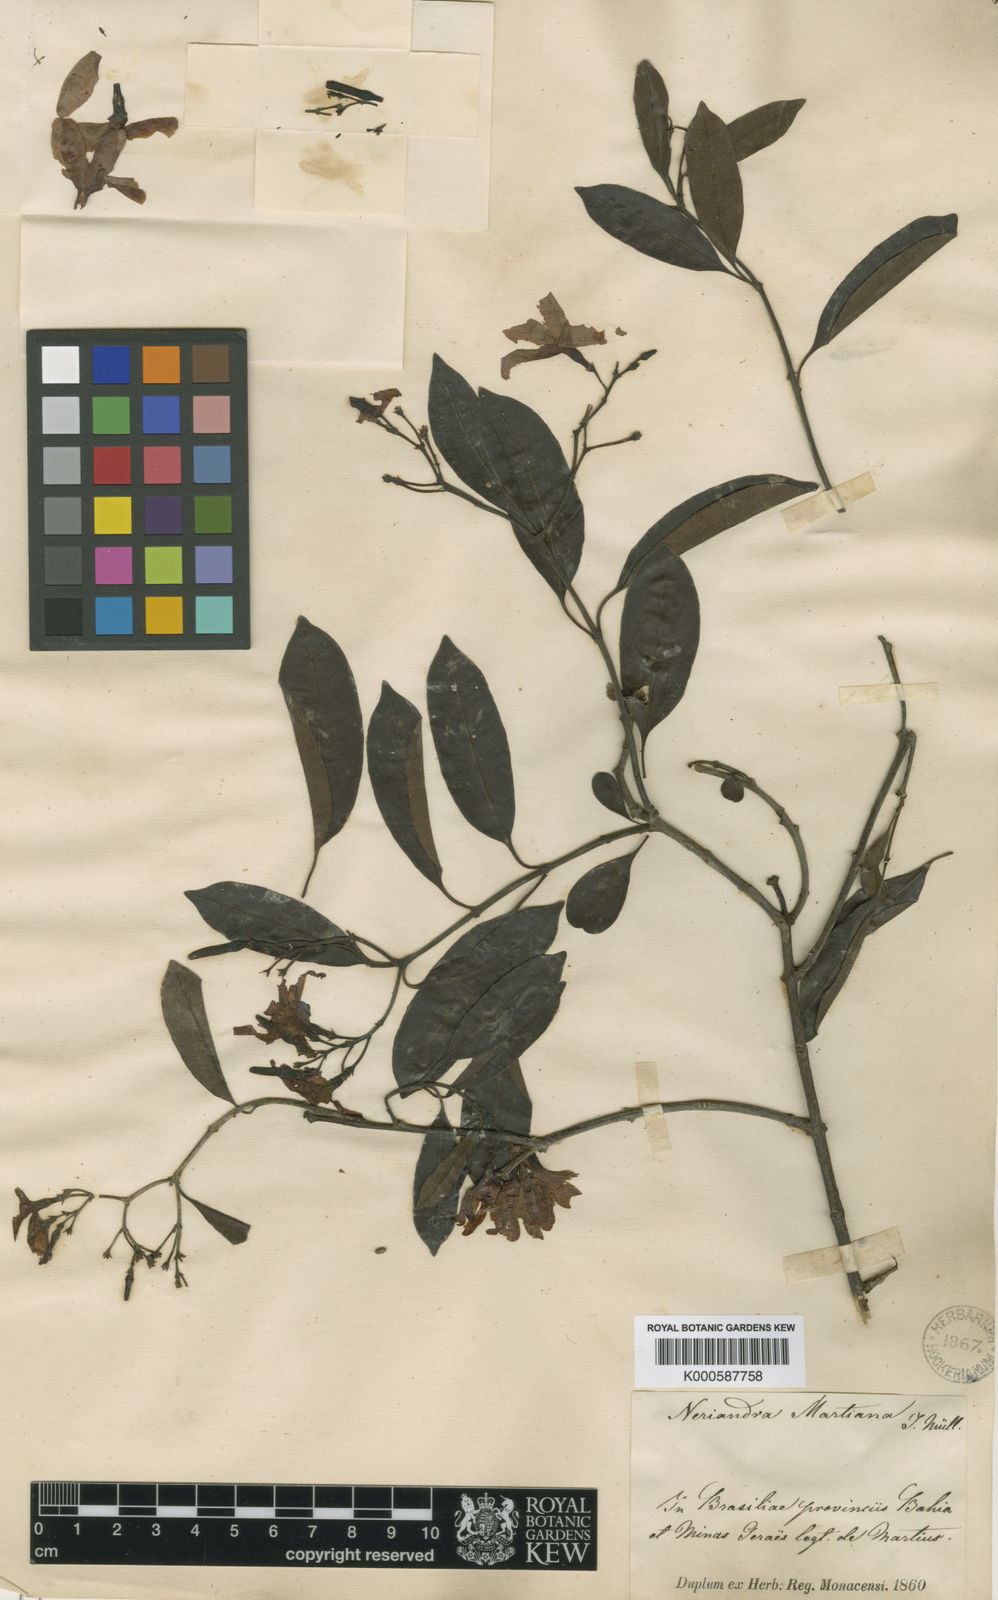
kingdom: Plantae
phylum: Tracheophyta
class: Magnoliopsida
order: Gentianales
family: Apocynaceae
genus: Skytanthus
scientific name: Skytanthus
